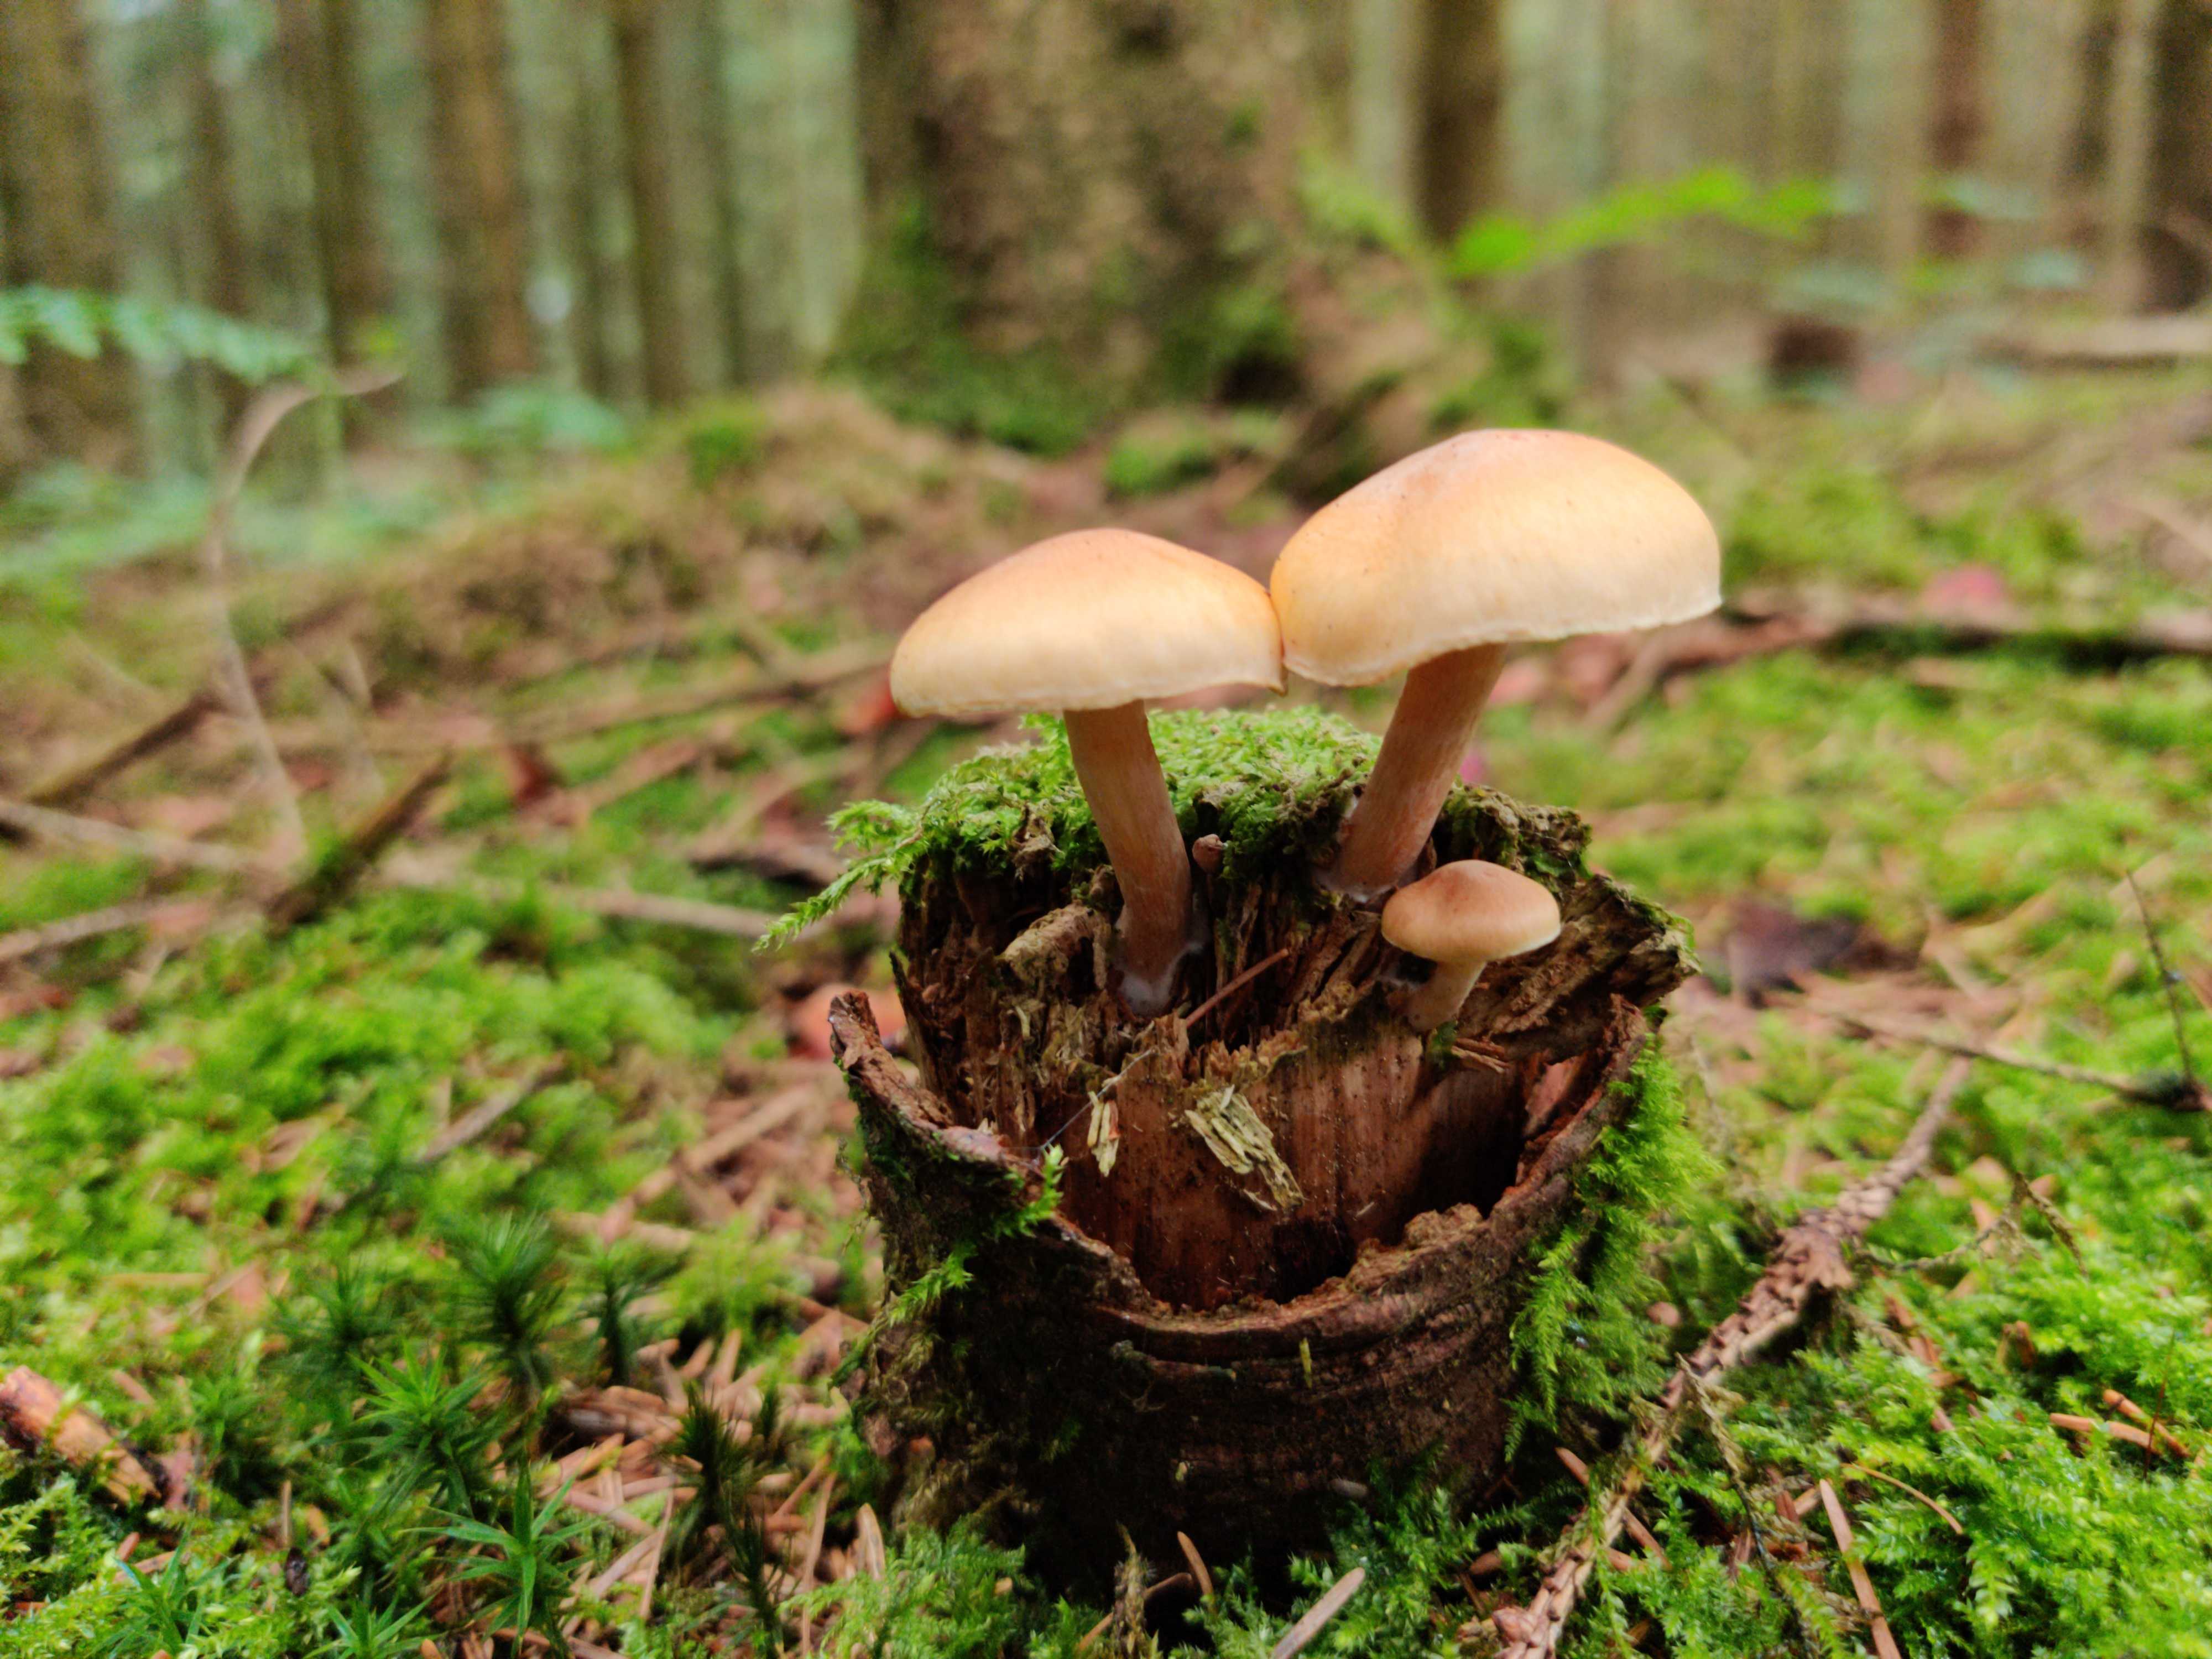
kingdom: Fungi
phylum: Basidiomycota
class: Agaricomycetes
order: Agaricales
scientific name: Agaricales
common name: champignonordenen
